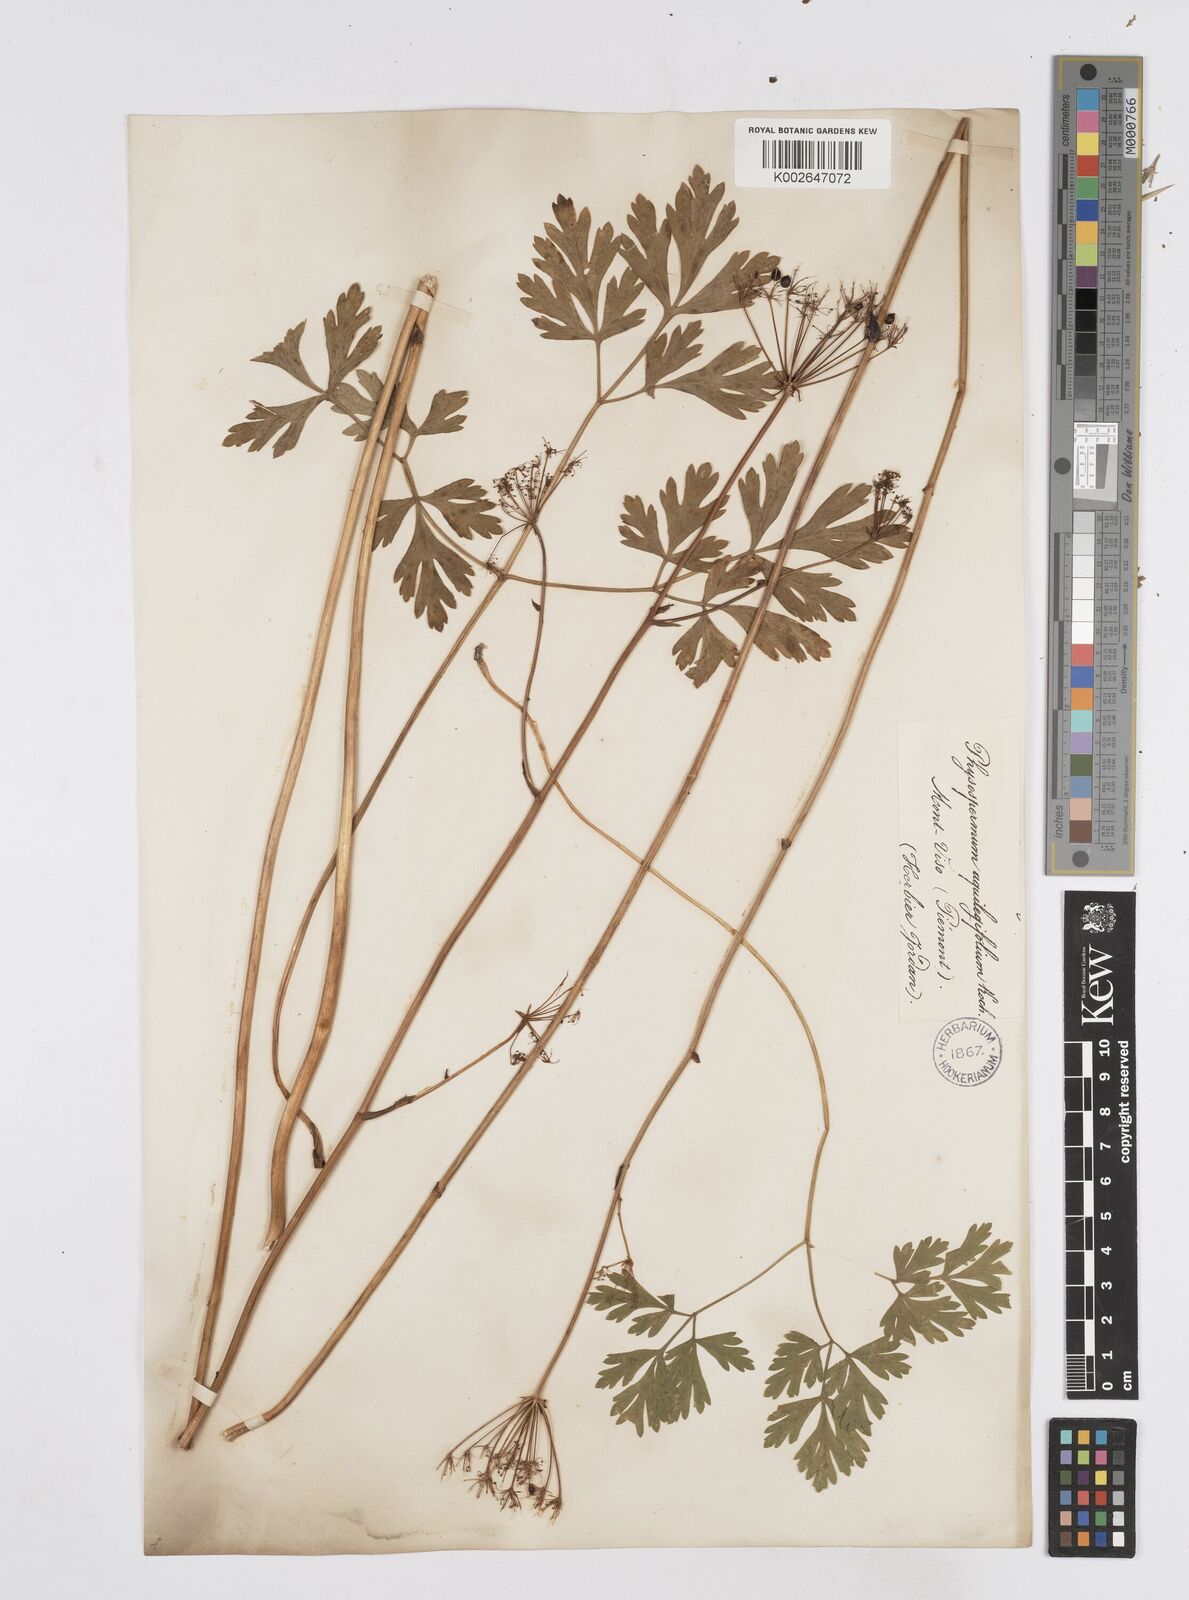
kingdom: Plantae
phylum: Tracheophyta
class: Magnoliopsida
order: Apiales
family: Apiaceae
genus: Physospermum
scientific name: Physospermum cornubiense
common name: Bladderseed
